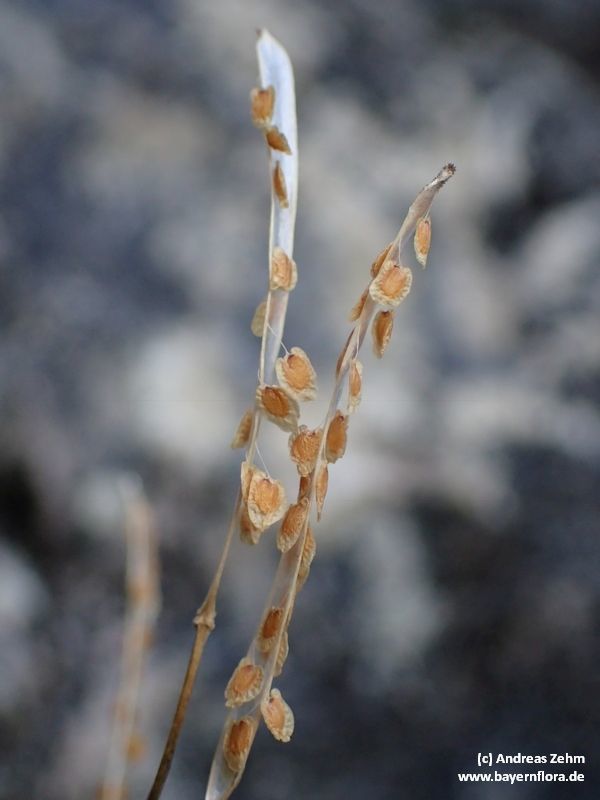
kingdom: Plantae
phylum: Tracheophyta
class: Magnoliopsida
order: Brassicales
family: Brassicaceae
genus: Arabis
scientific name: Arabis pumila
